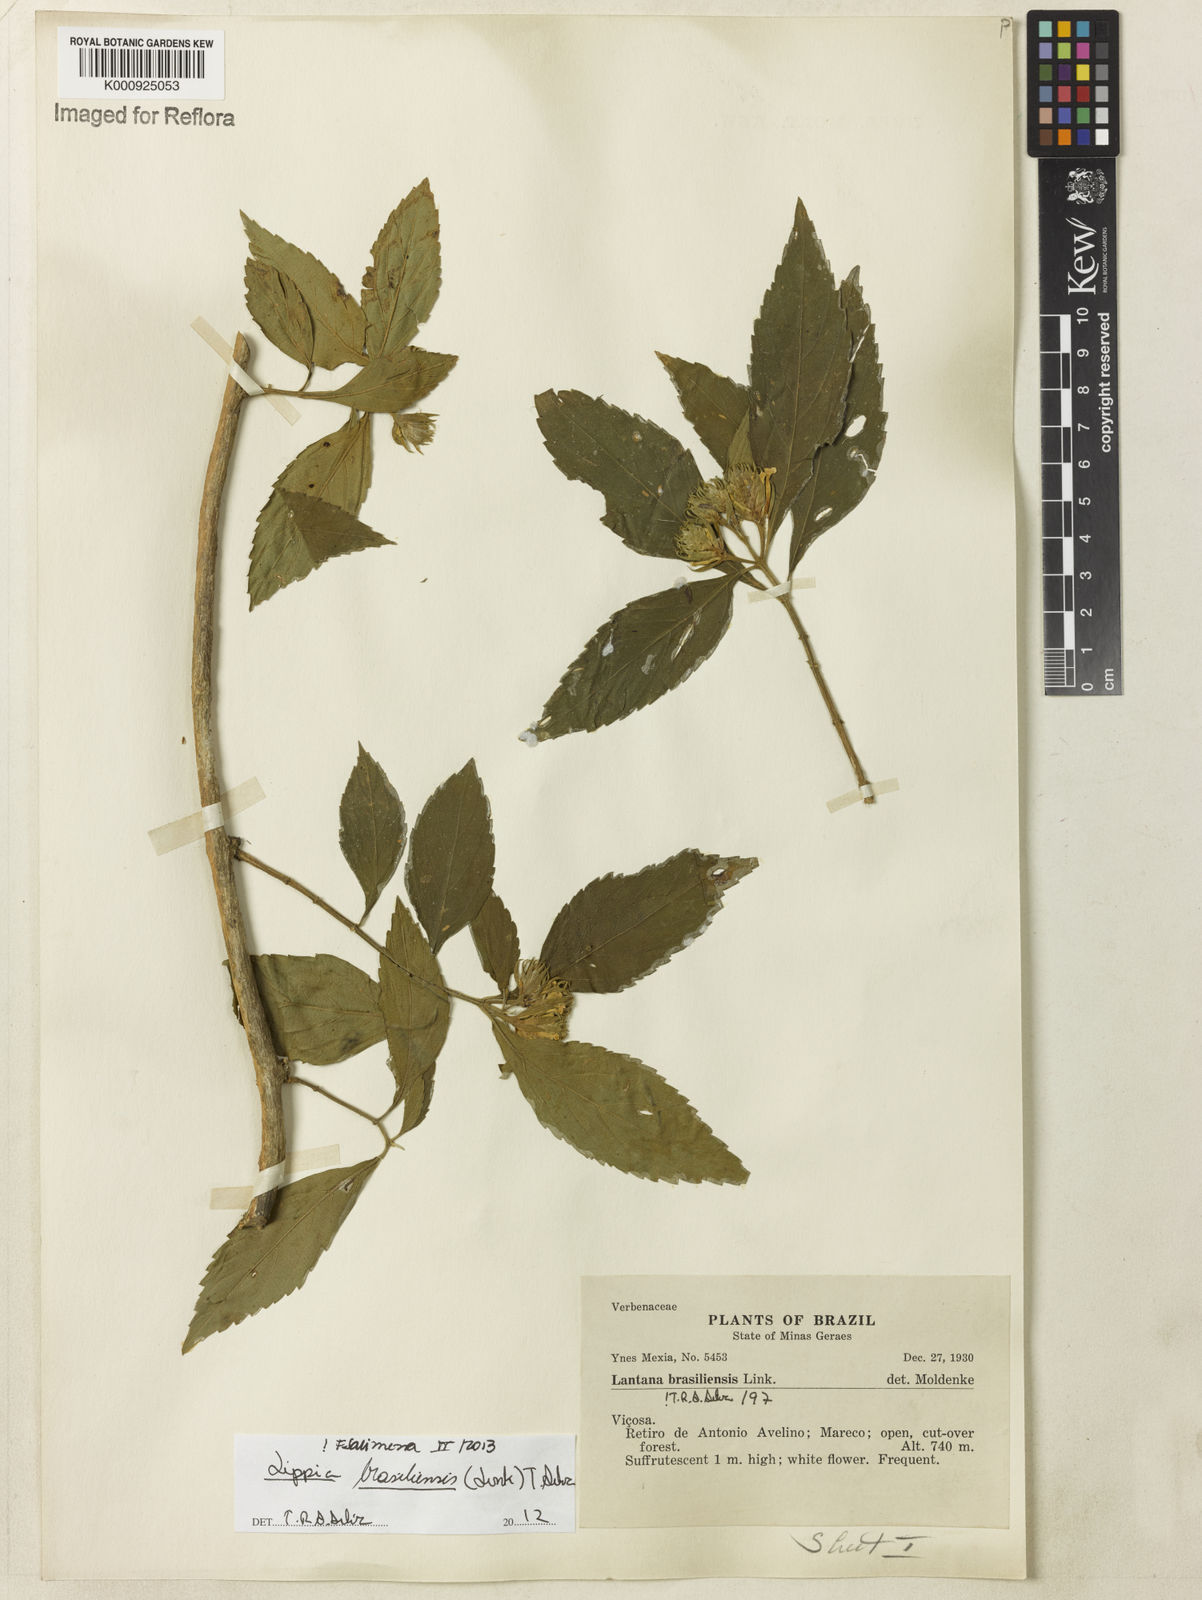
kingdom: Plantae
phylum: Tracheophyta
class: Magnoliopsida
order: Lamiales
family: Verbenaceae
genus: Lippia
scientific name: Lippia brasiliensis
